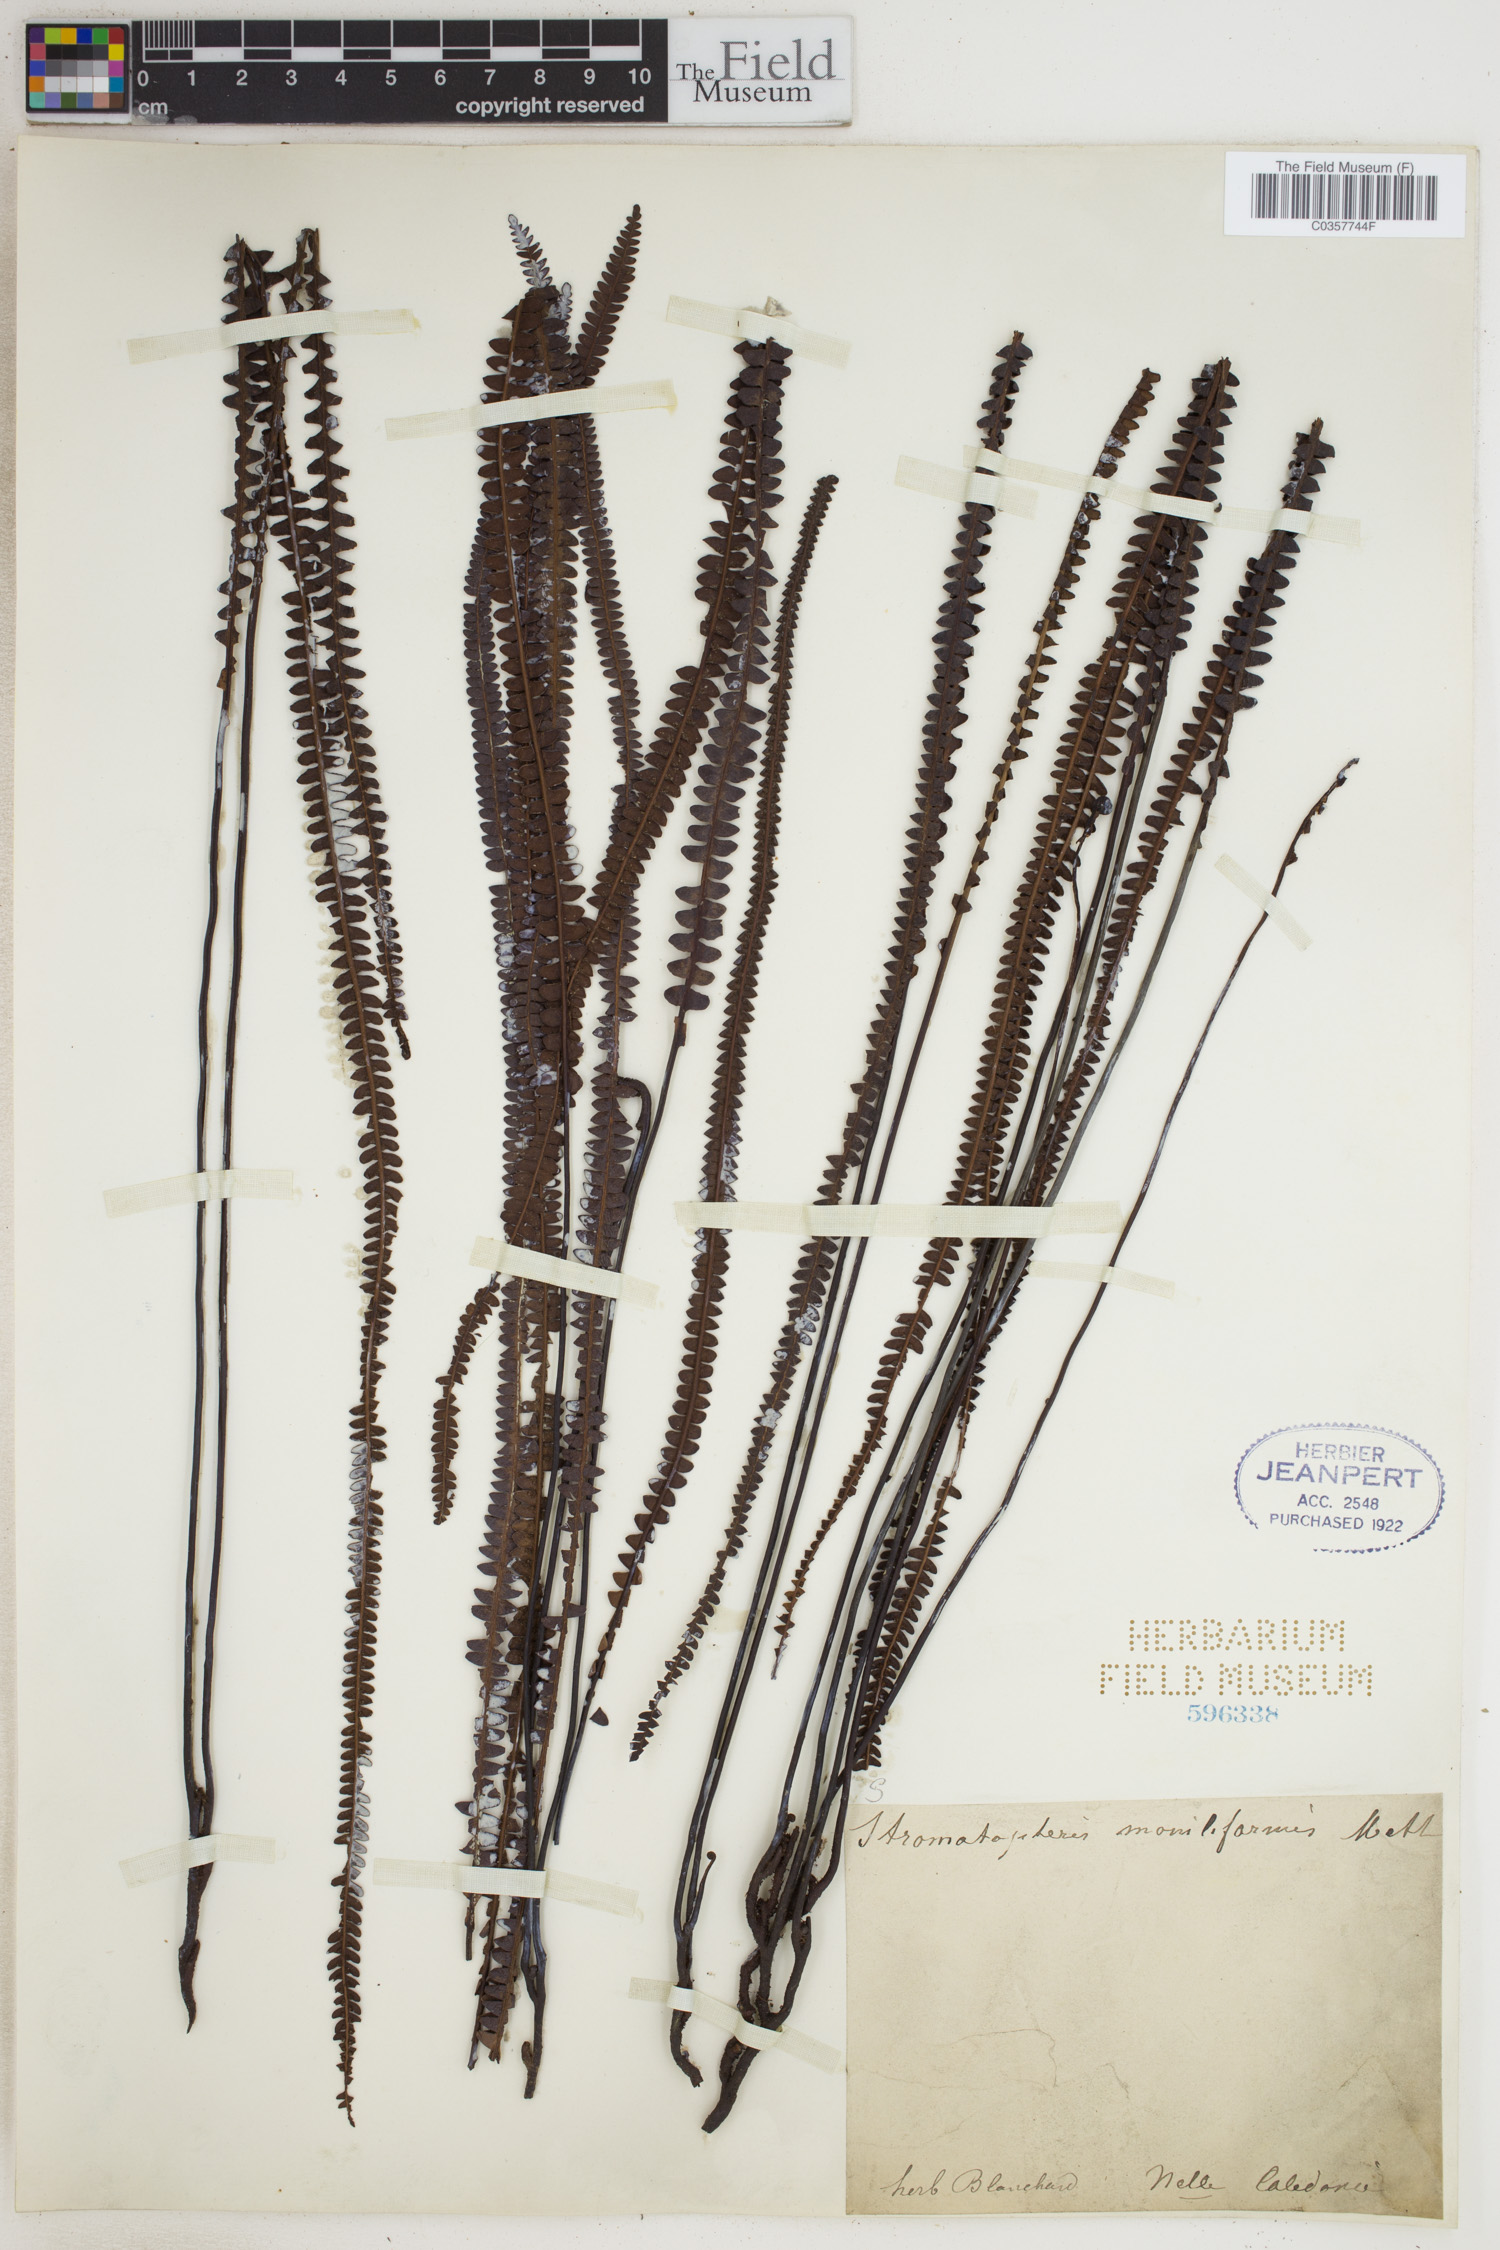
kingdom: Plantae
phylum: Tracheophyta
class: Polypodiopsida
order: Gleicheniales
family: Gleicheniaceae
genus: Stromatopteris
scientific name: Stromatopteris moniliformis
